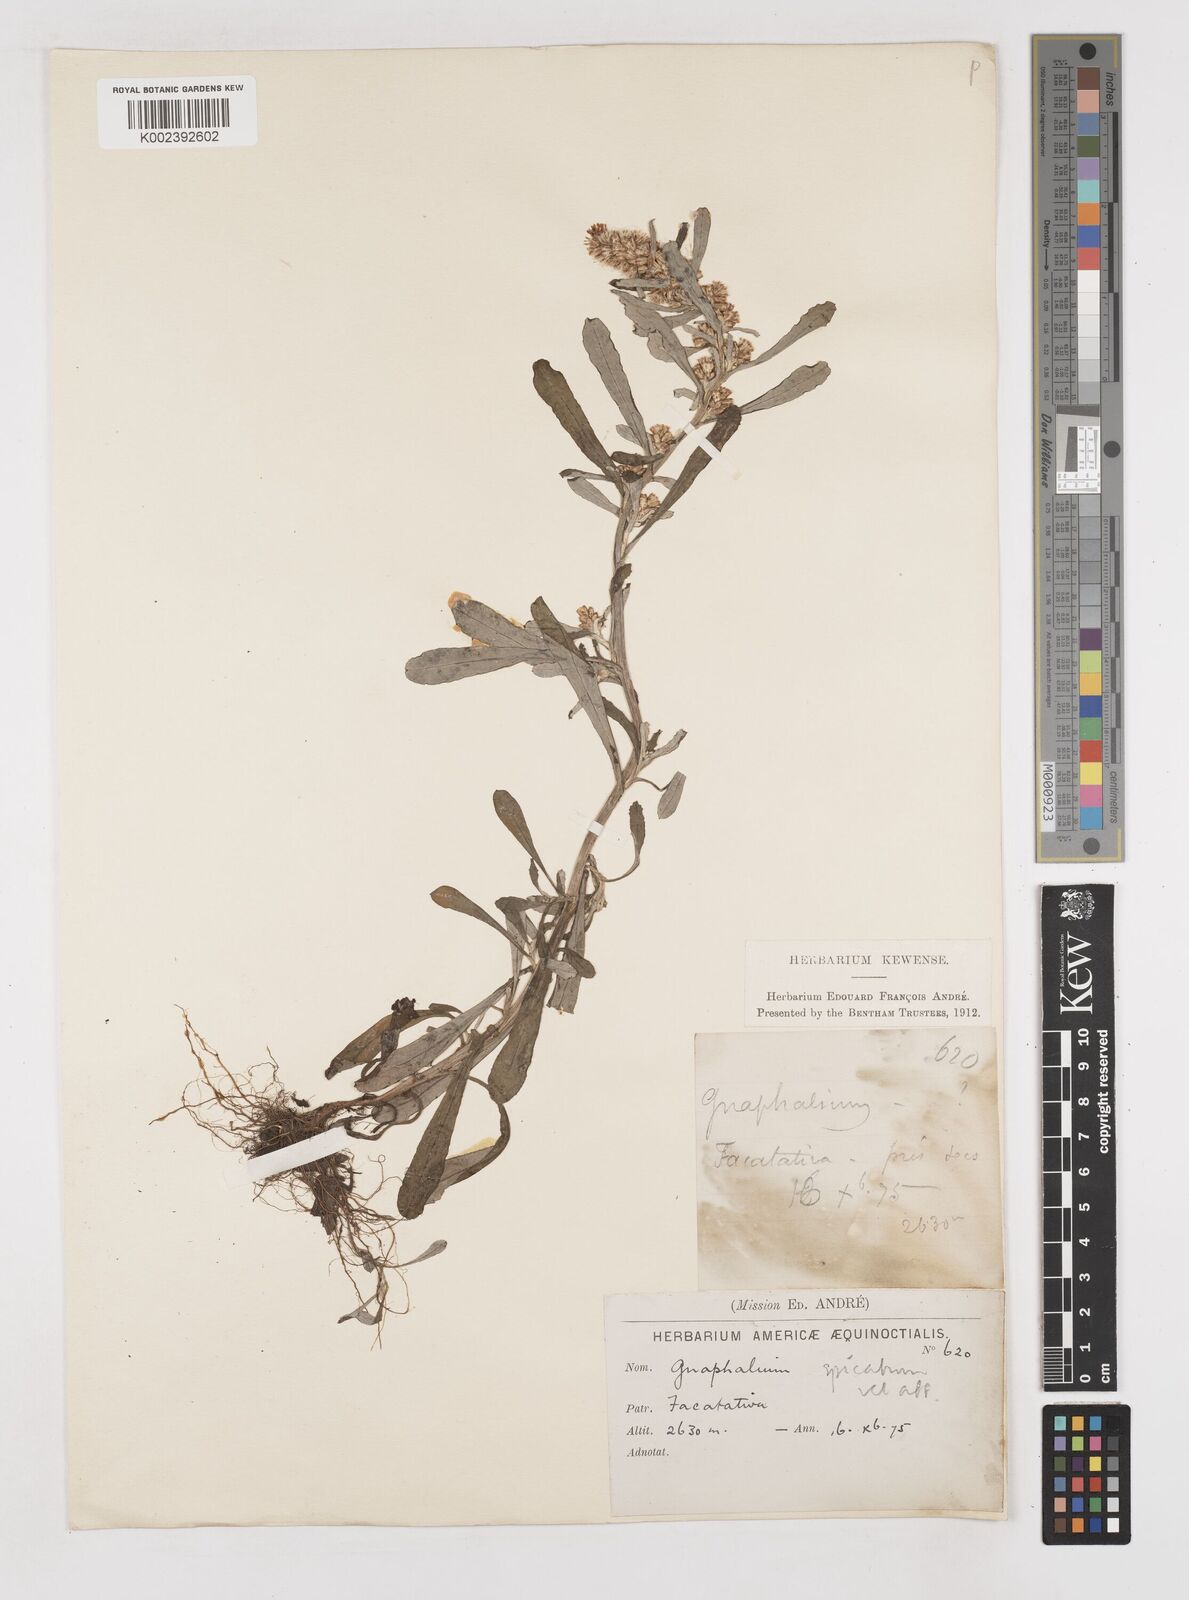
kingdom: Plantae
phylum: Tracheophyta
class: Magnoliopsida
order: Asterales
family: Asteraceae
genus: Gamochaeta
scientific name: Gamochaeta americana
